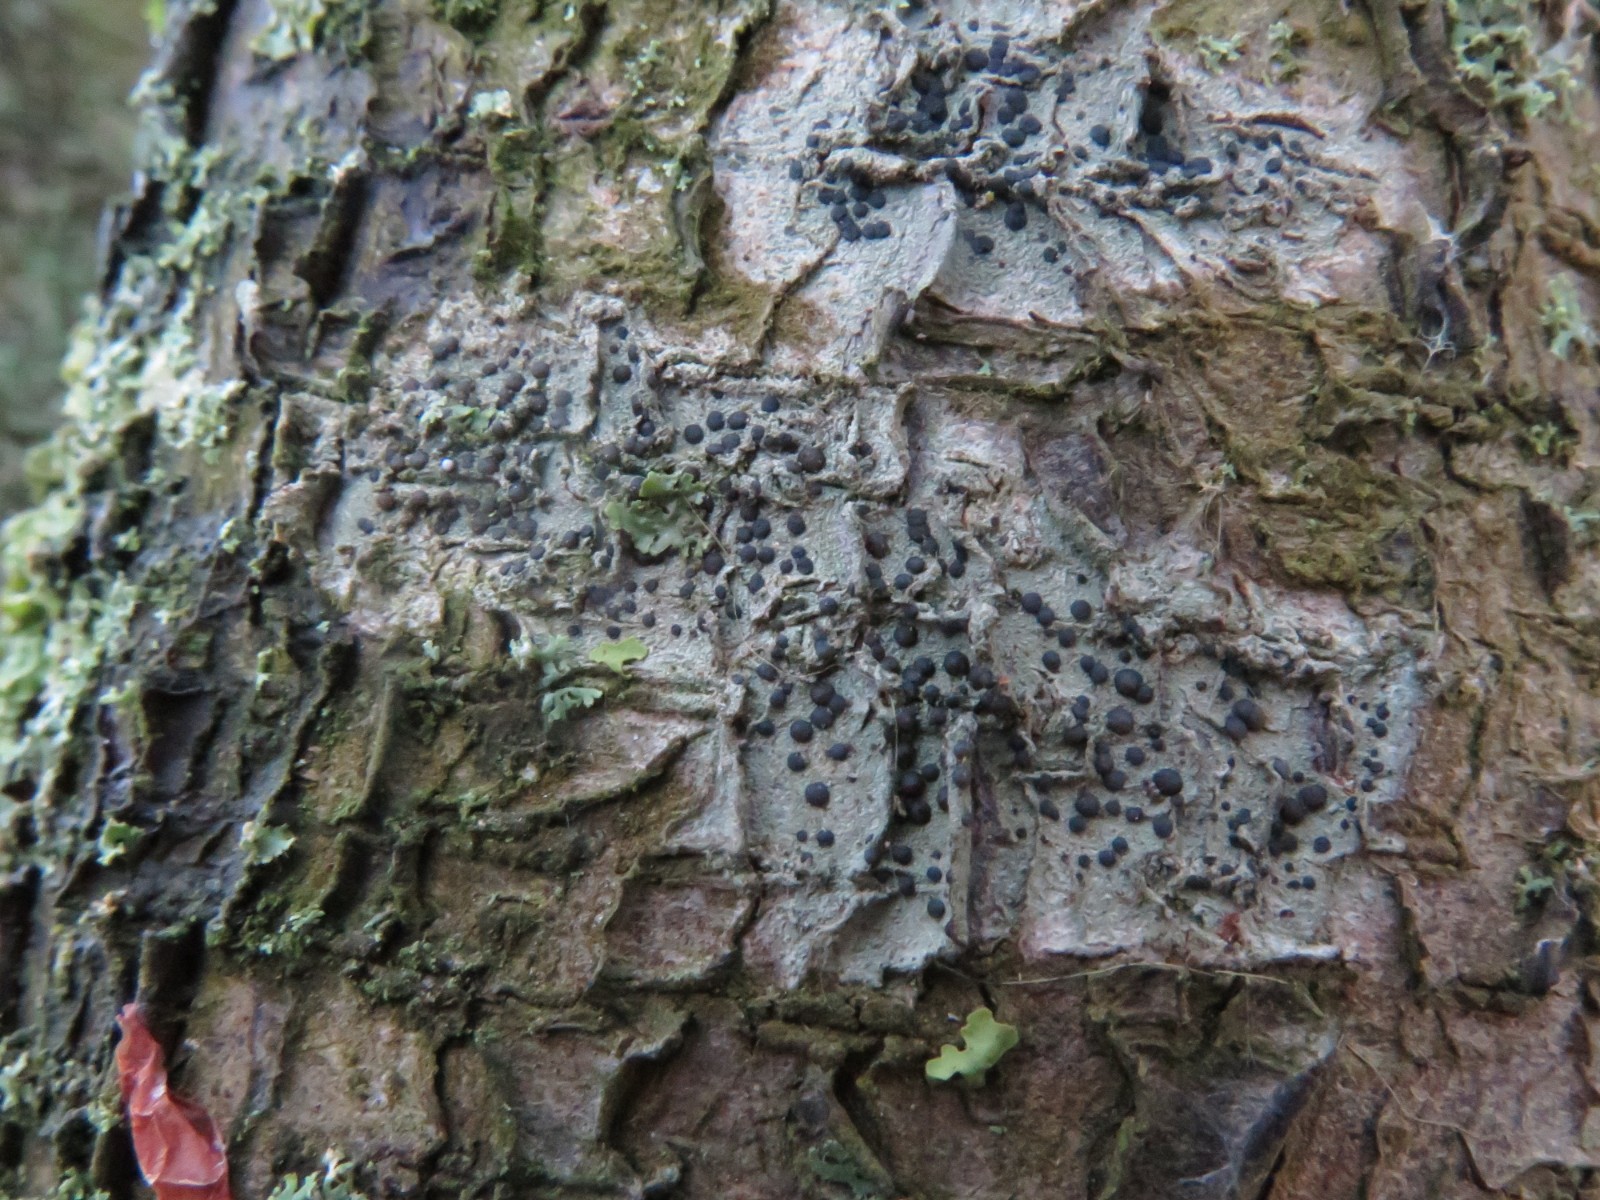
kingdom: Fungi
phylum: Ascomycota
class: Lecanoromycetes
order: Lecanorales
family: Lecanoraceae
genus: Lecidella
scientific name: Lecidella elaeochroma
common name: grågrøn skivelav
